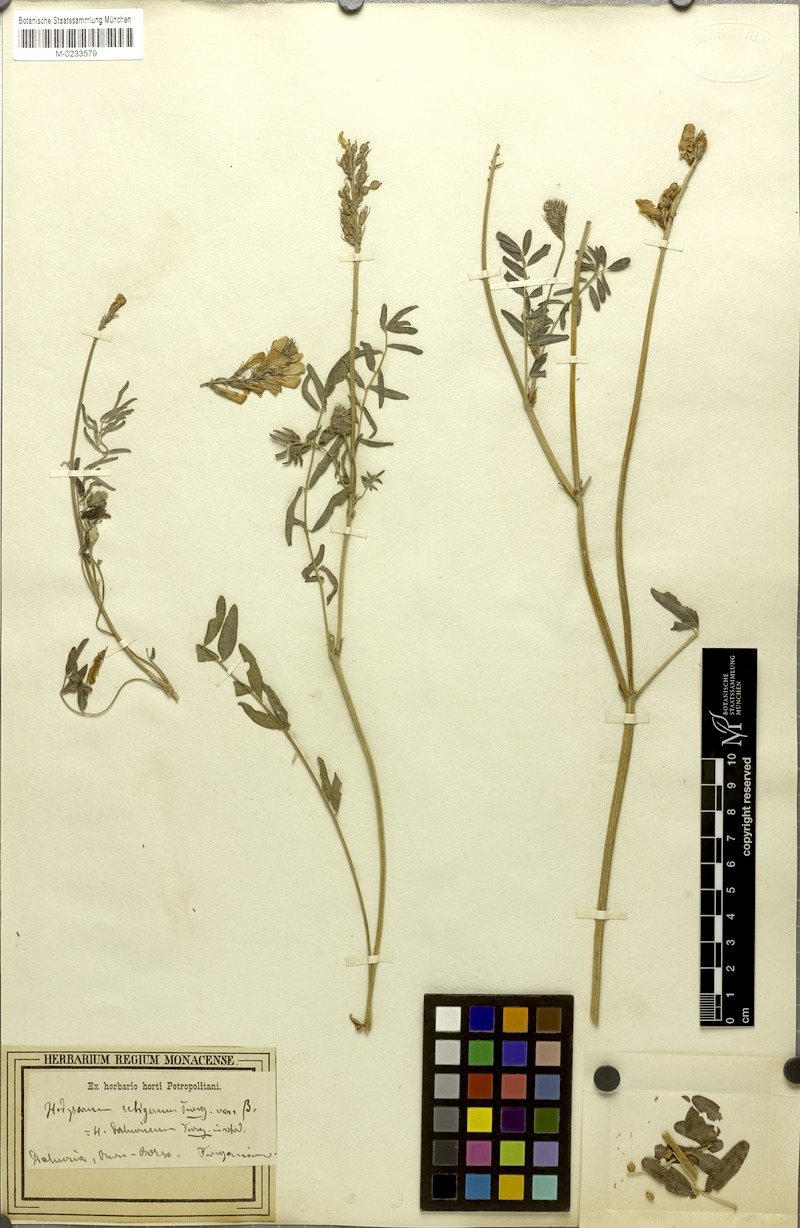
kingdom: Plantae
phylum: Tracheophyta
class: Magnoliopsida
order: Fabales
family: Fabaceae
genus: Hedysarum
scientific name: Hedysarum setigerum
